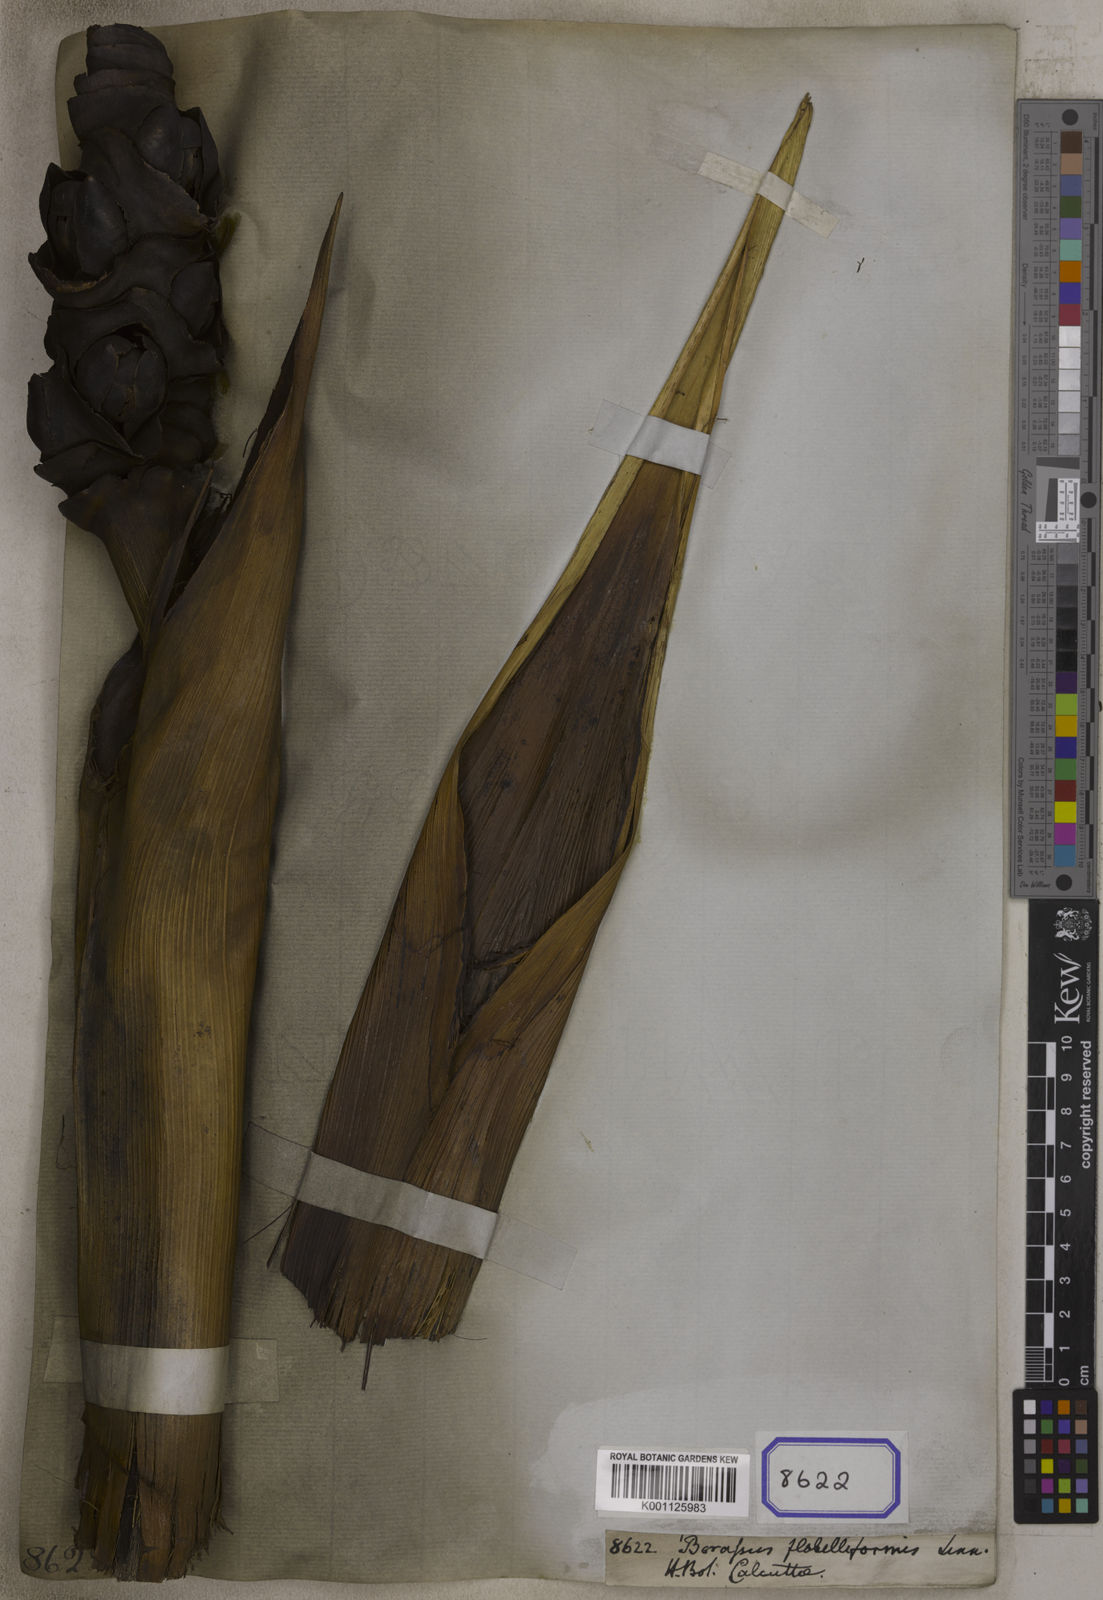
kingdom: Plantae
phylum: Tracheophyta
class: Liliopsida
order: Arecales
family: Arecaceae
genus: Borassus
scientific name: Borassus flabellifer
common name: Palmyra palm
